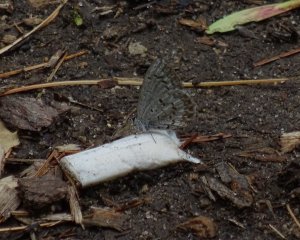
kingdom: Animalia
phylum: Arthropoda
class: Insecta
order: Lepidoptera
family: Lycaenidae
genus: Celastrina
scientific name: Celastrina lucia
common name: Northern Spring Azure
